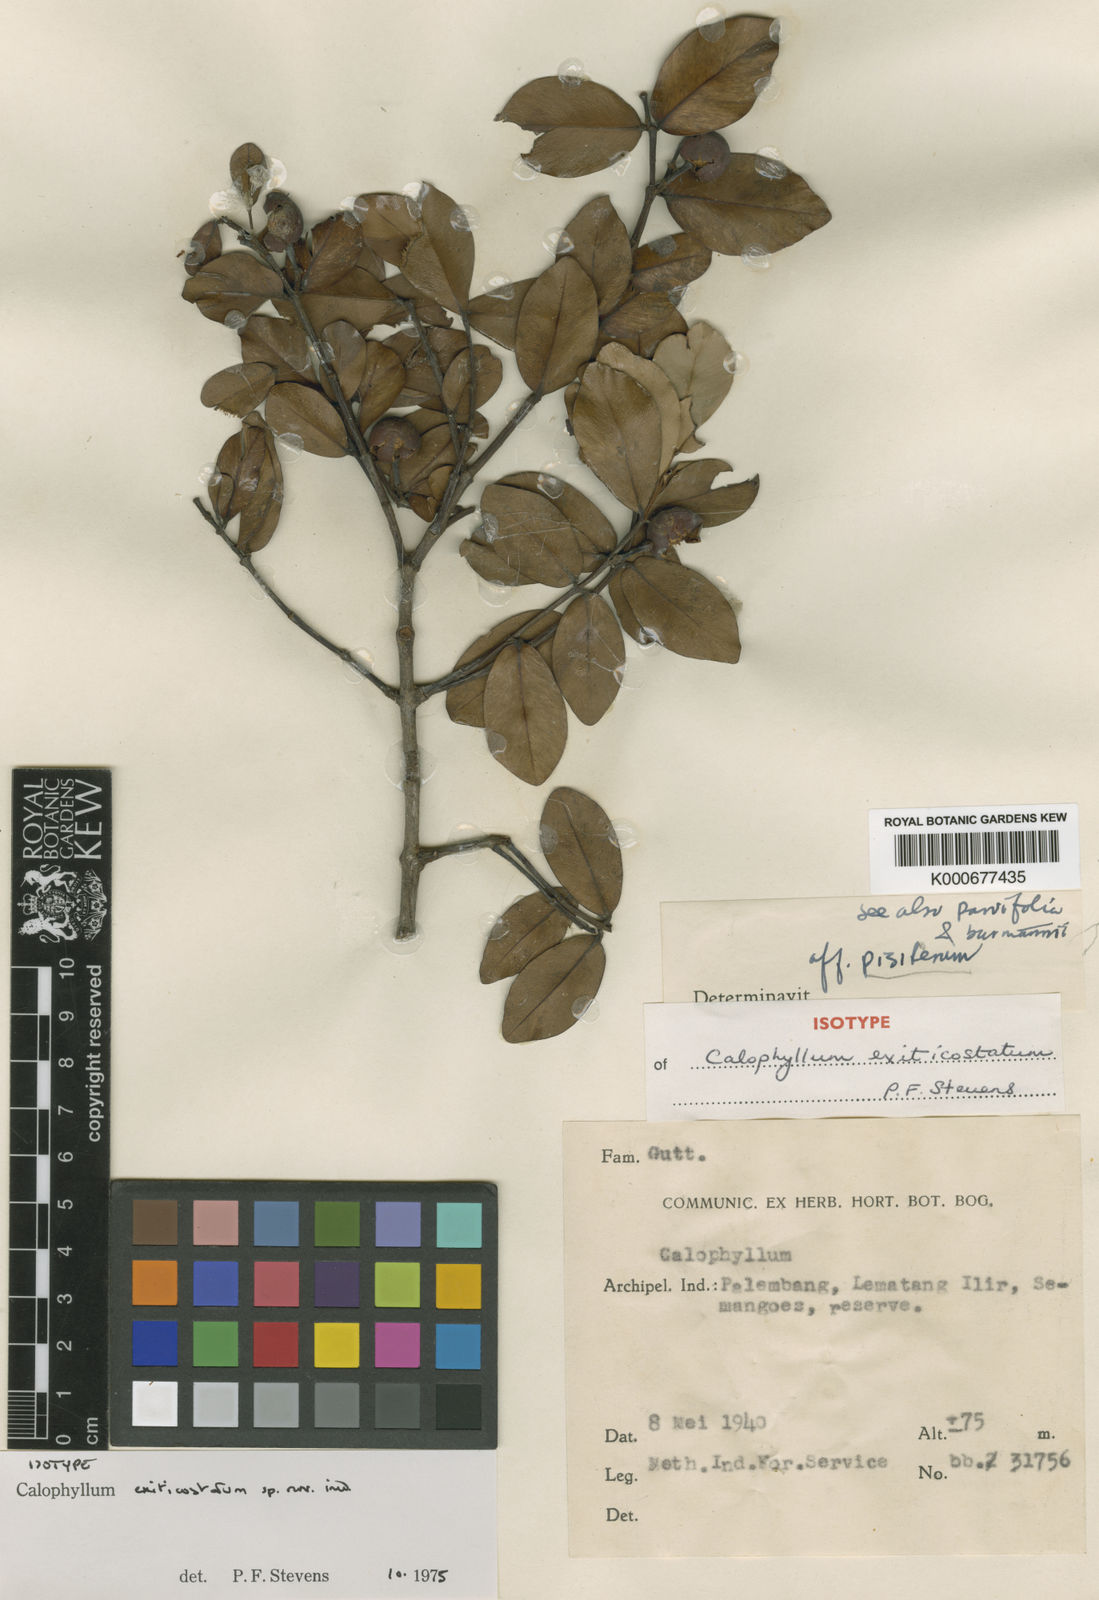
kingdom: Plantae
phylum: Tracheophyta
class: Magnoliopsida
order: Malpighiales
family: Calophyllaceae
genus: Calophyllum
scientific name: Calophyllum exiticostatum
